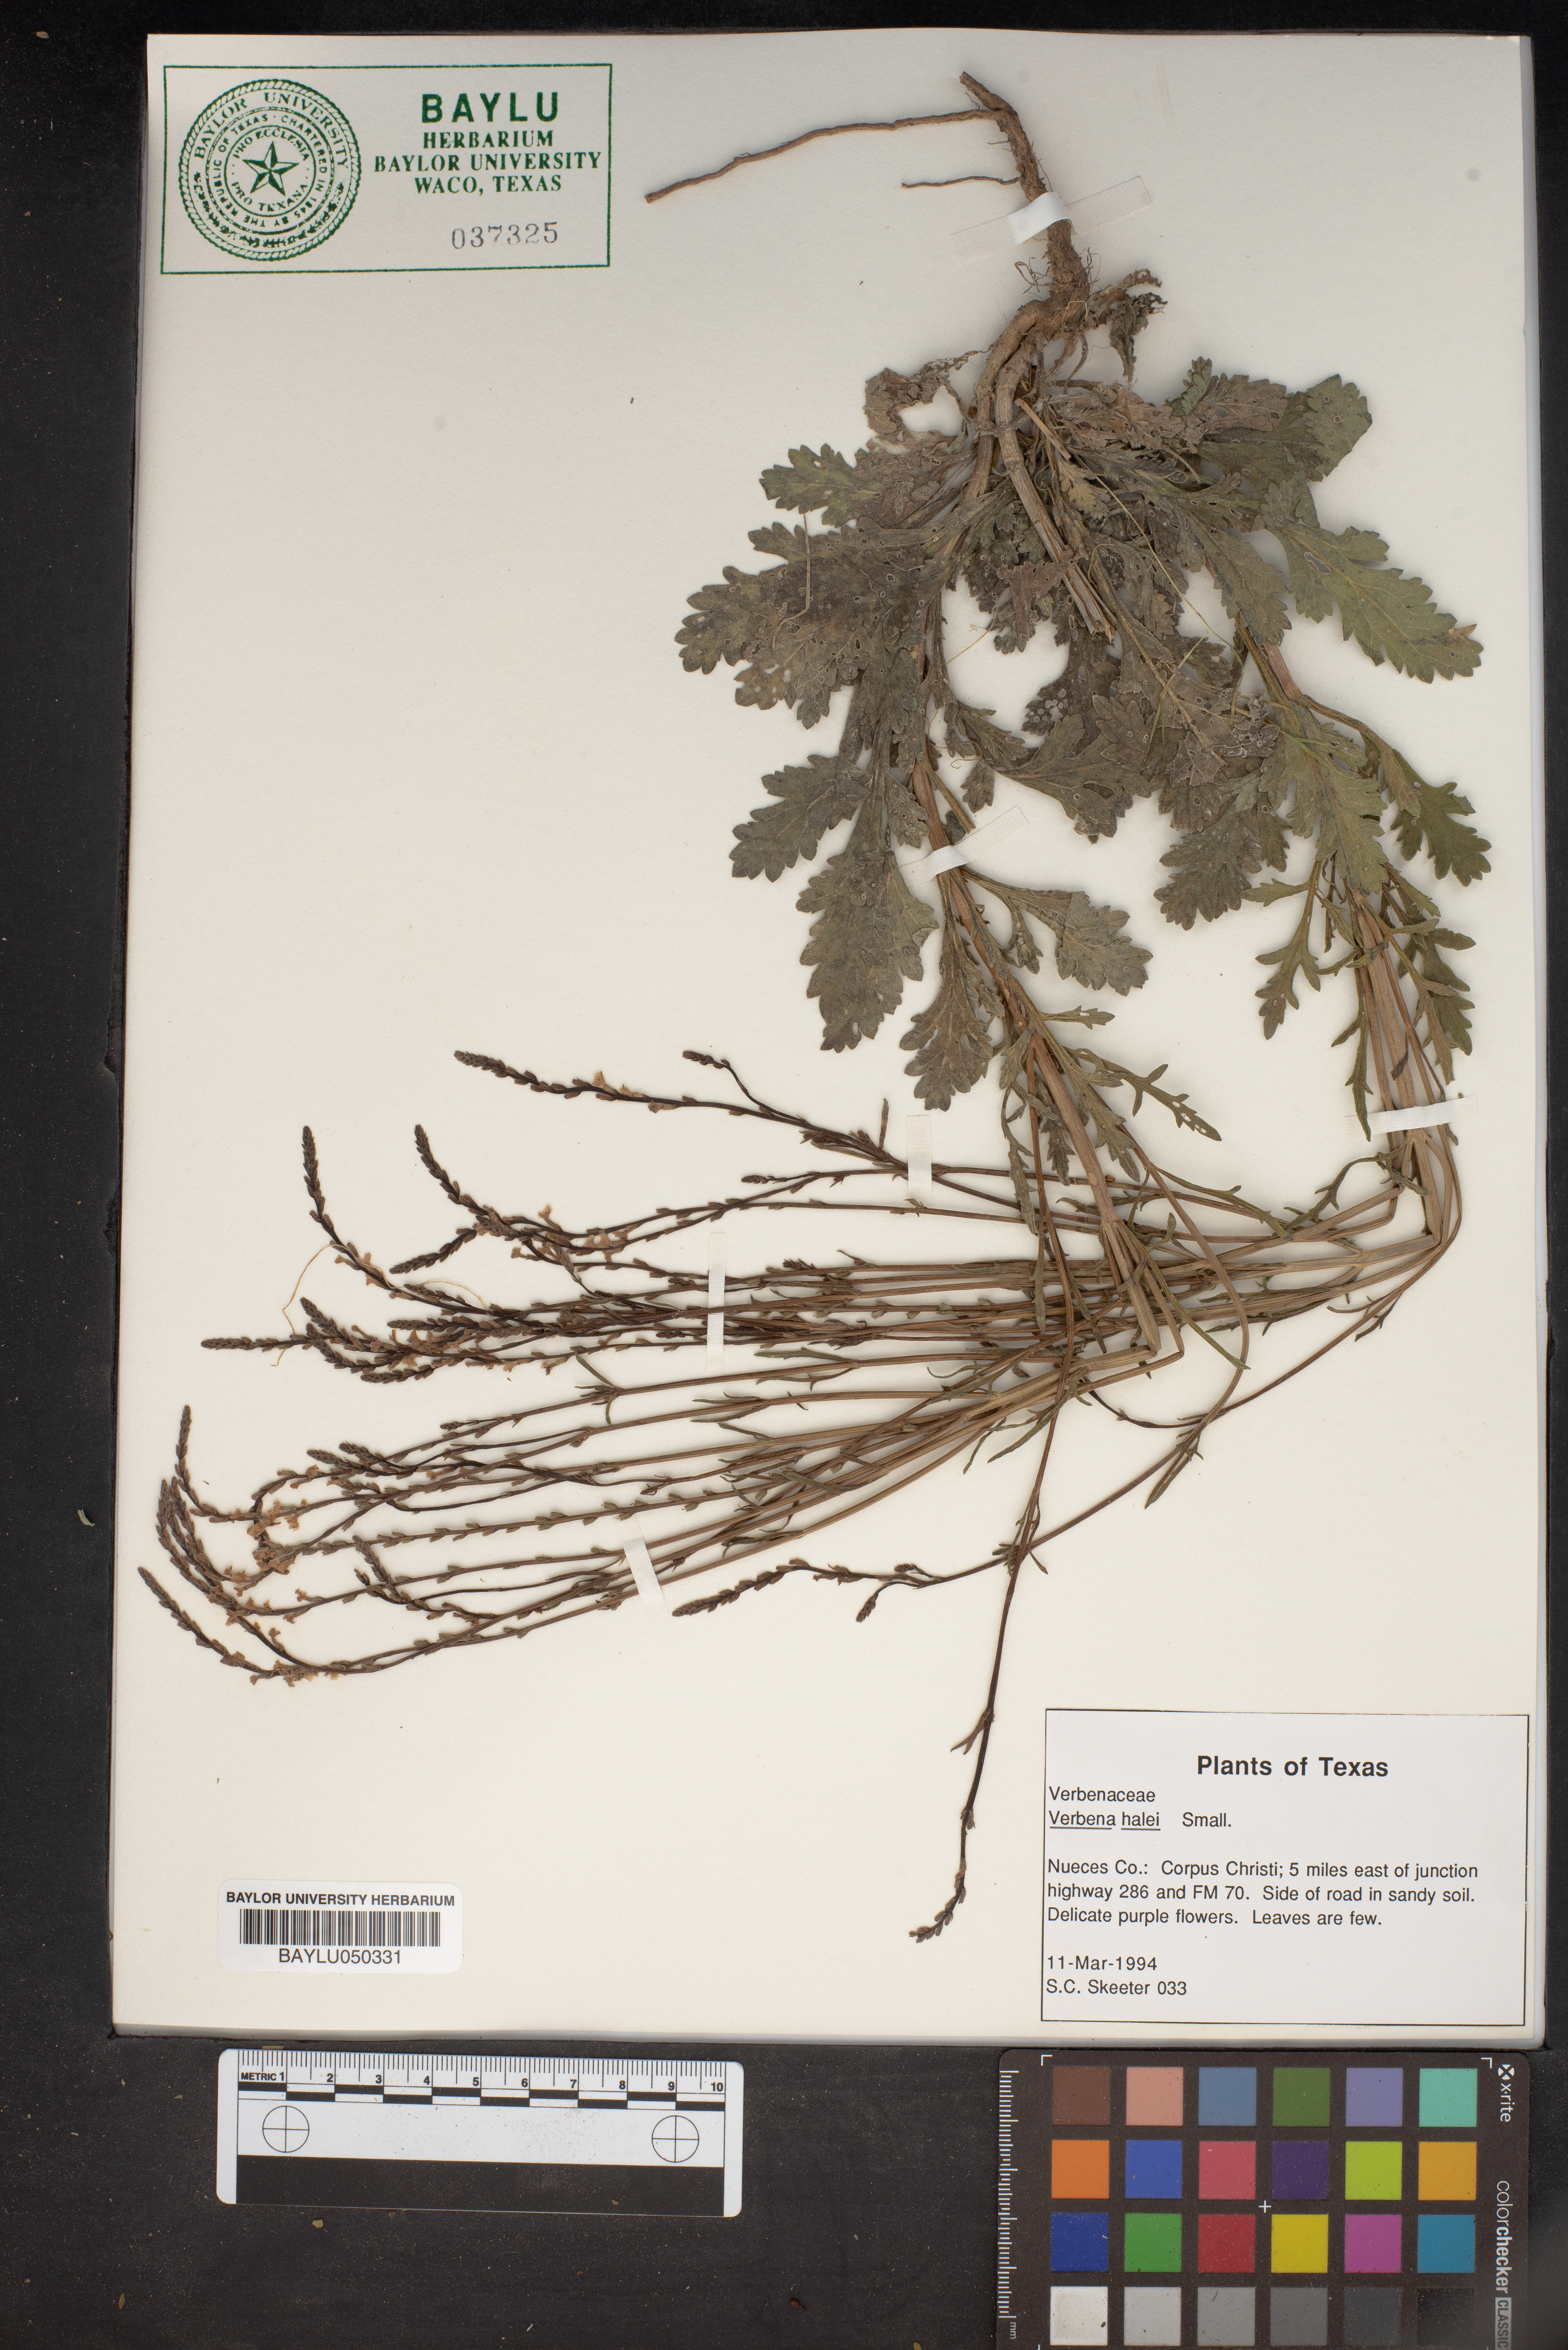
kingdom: Plantae
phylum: Tracheophyta
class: Magnoliopsida
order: Lamiales
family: Verbenaceae
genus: Verbena
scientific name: Verbena halei
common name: Texas vervain
